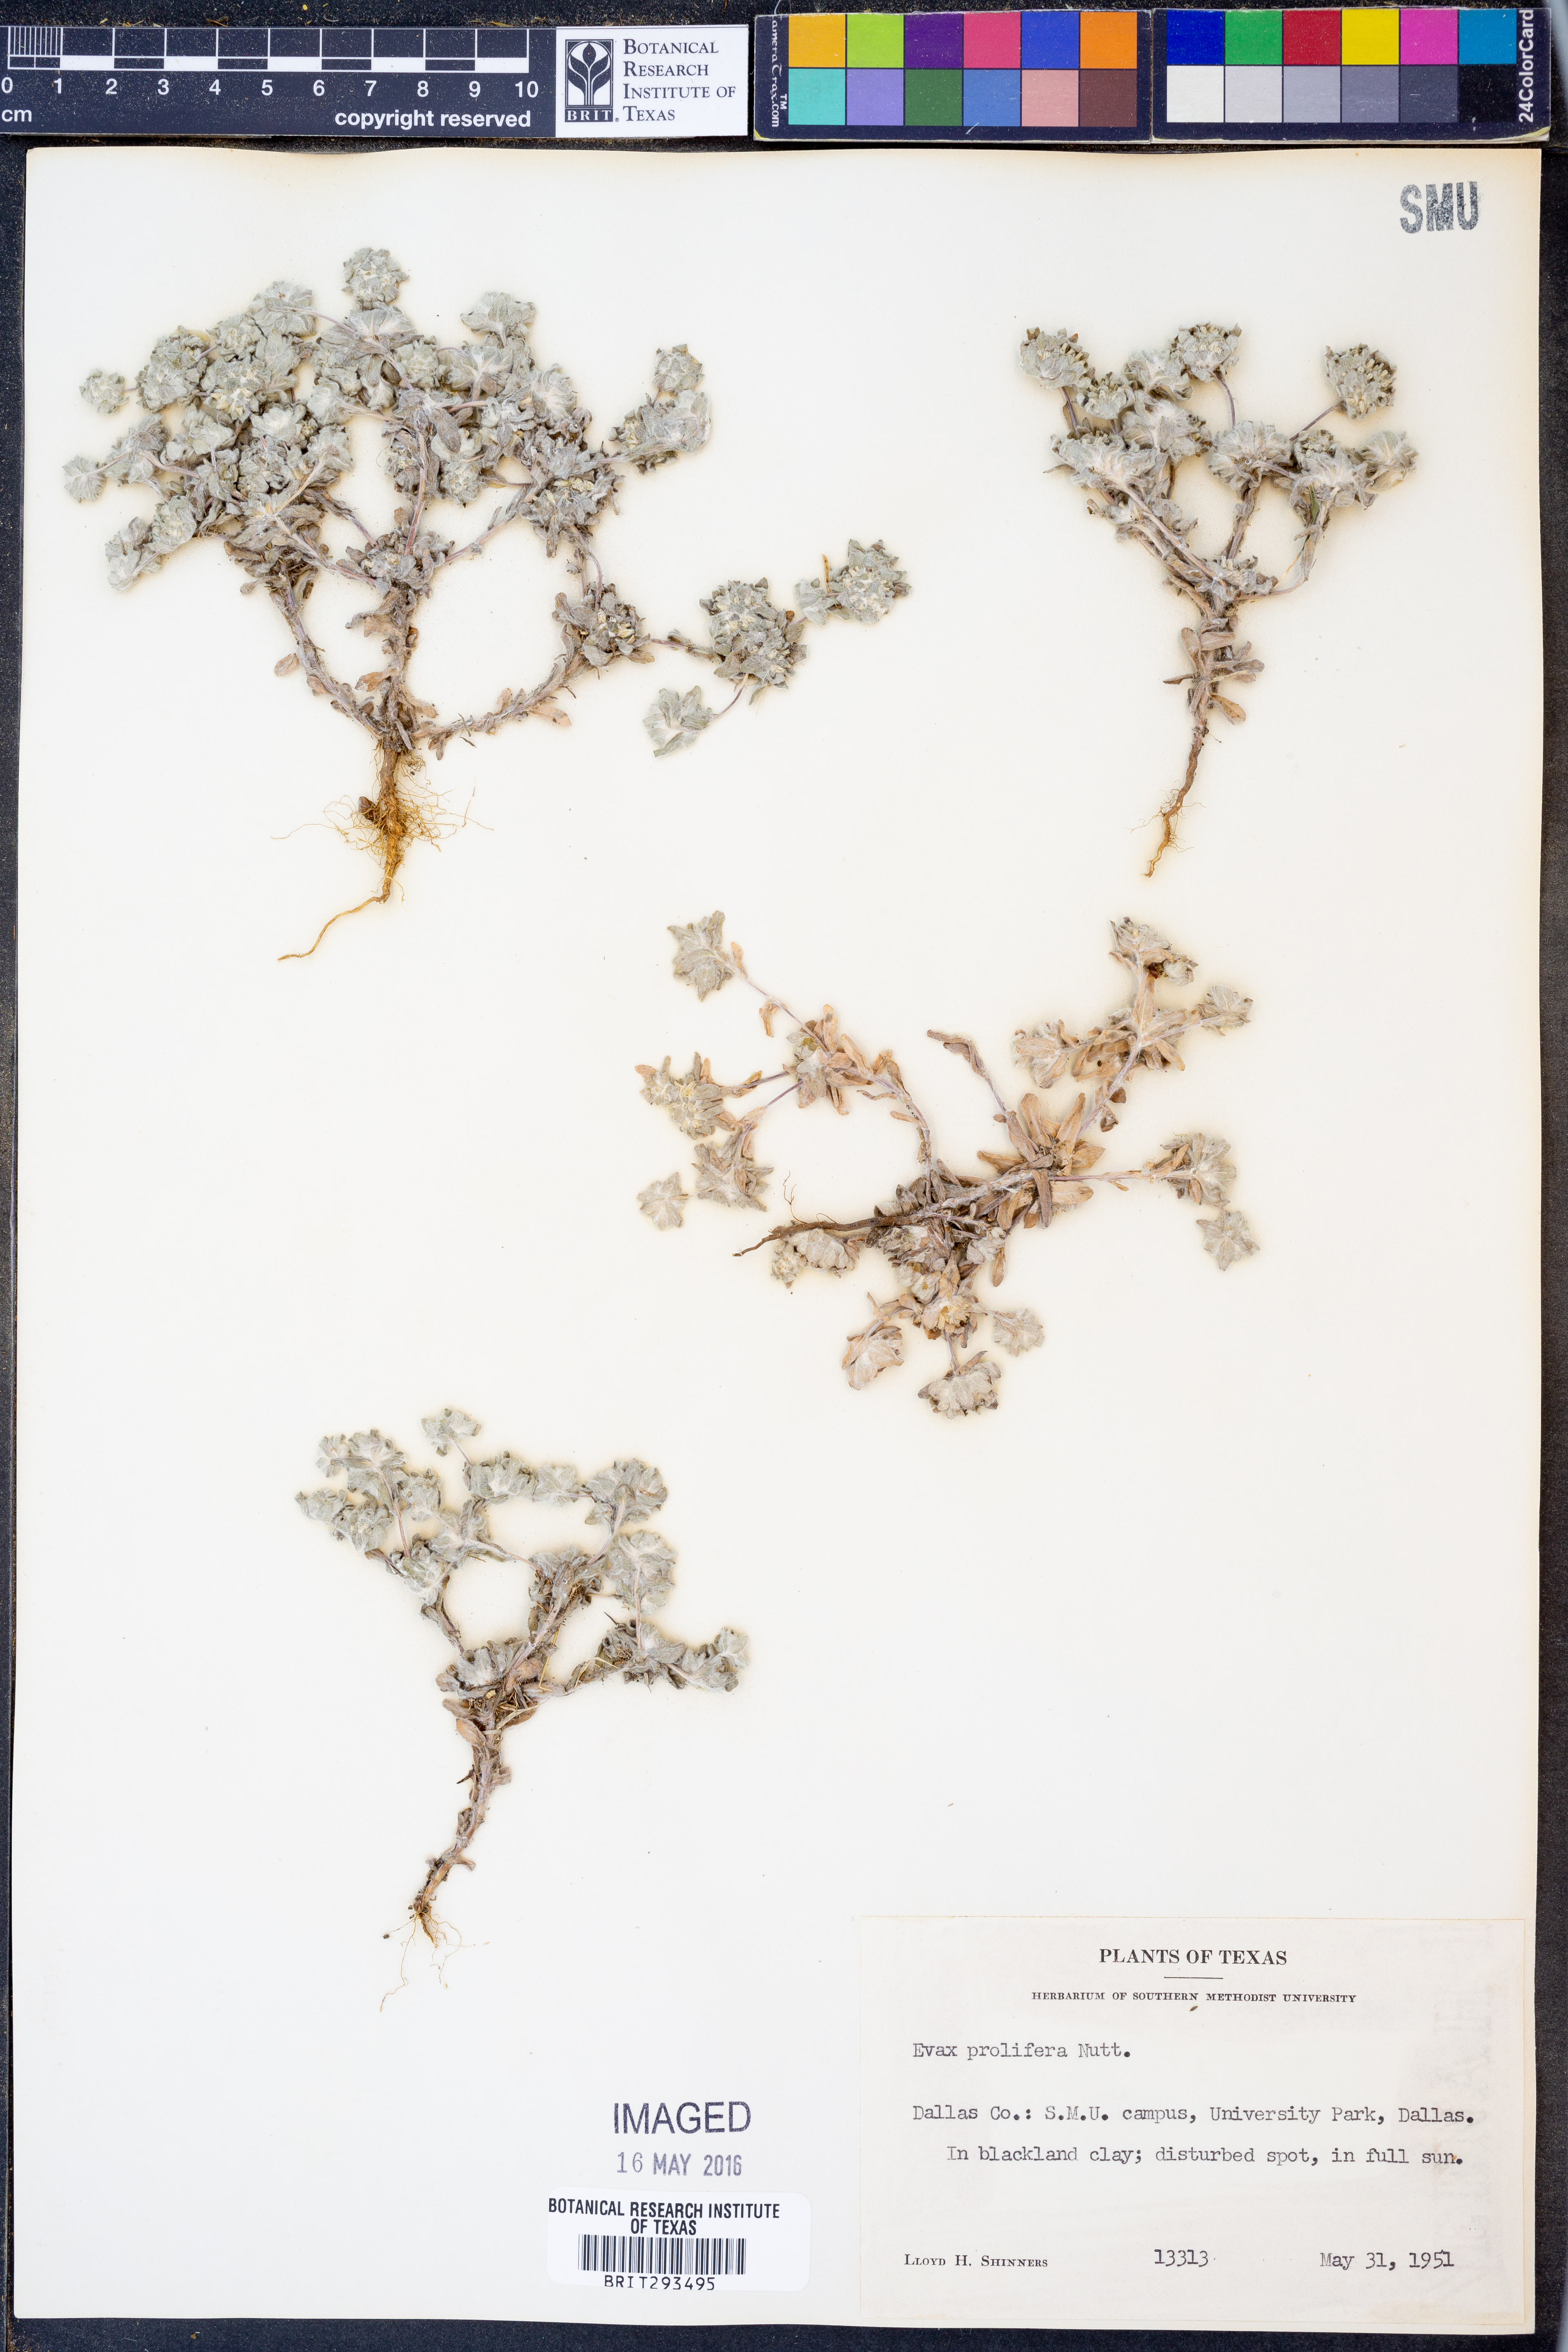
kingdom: Plantae
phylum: Tracheophyta
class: Magnoliopsida
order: Asterales
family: Asteraceae
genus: Diaperia
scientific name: Diaperia prolifera
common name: Big-head rabbit-tobacco
